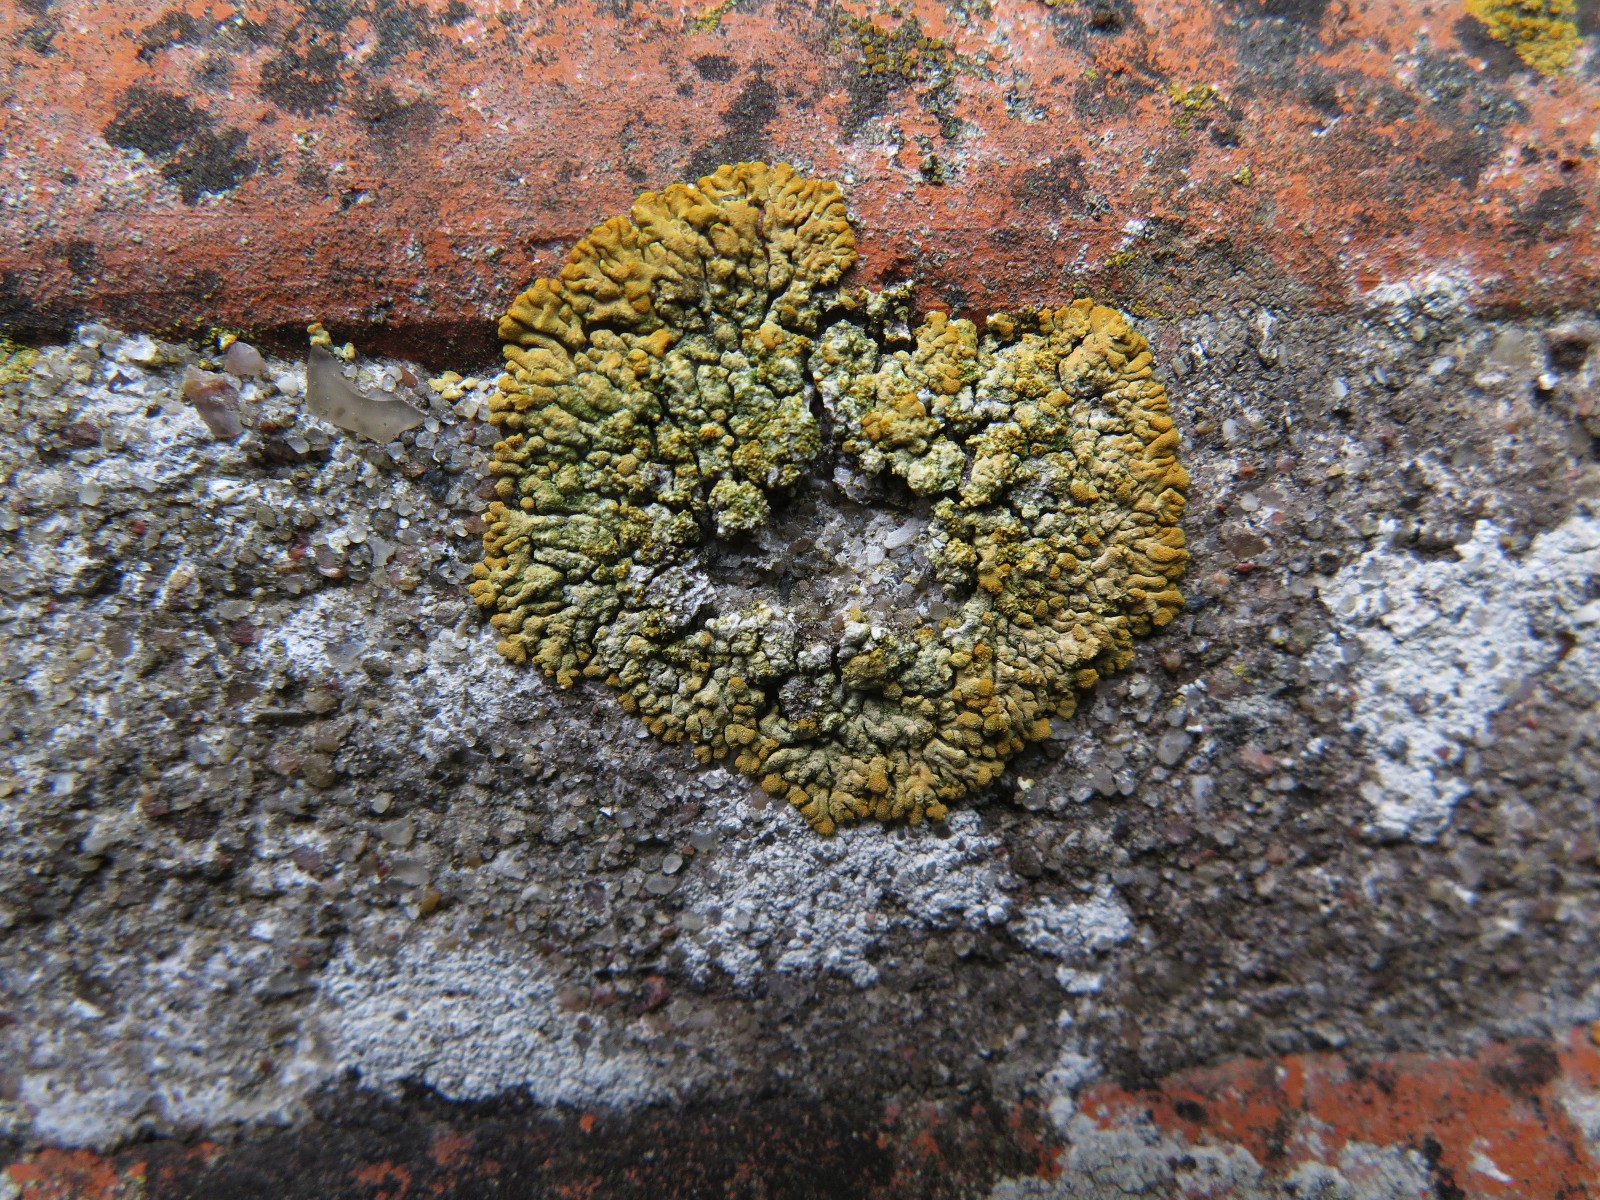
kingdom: Fungi
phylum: Ascomycota
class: Lecanoromycetes
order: Teloschistales
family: Teloschistaceae
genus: Calogaya
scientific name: Calogaya decipiens
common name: knudret orangelav
